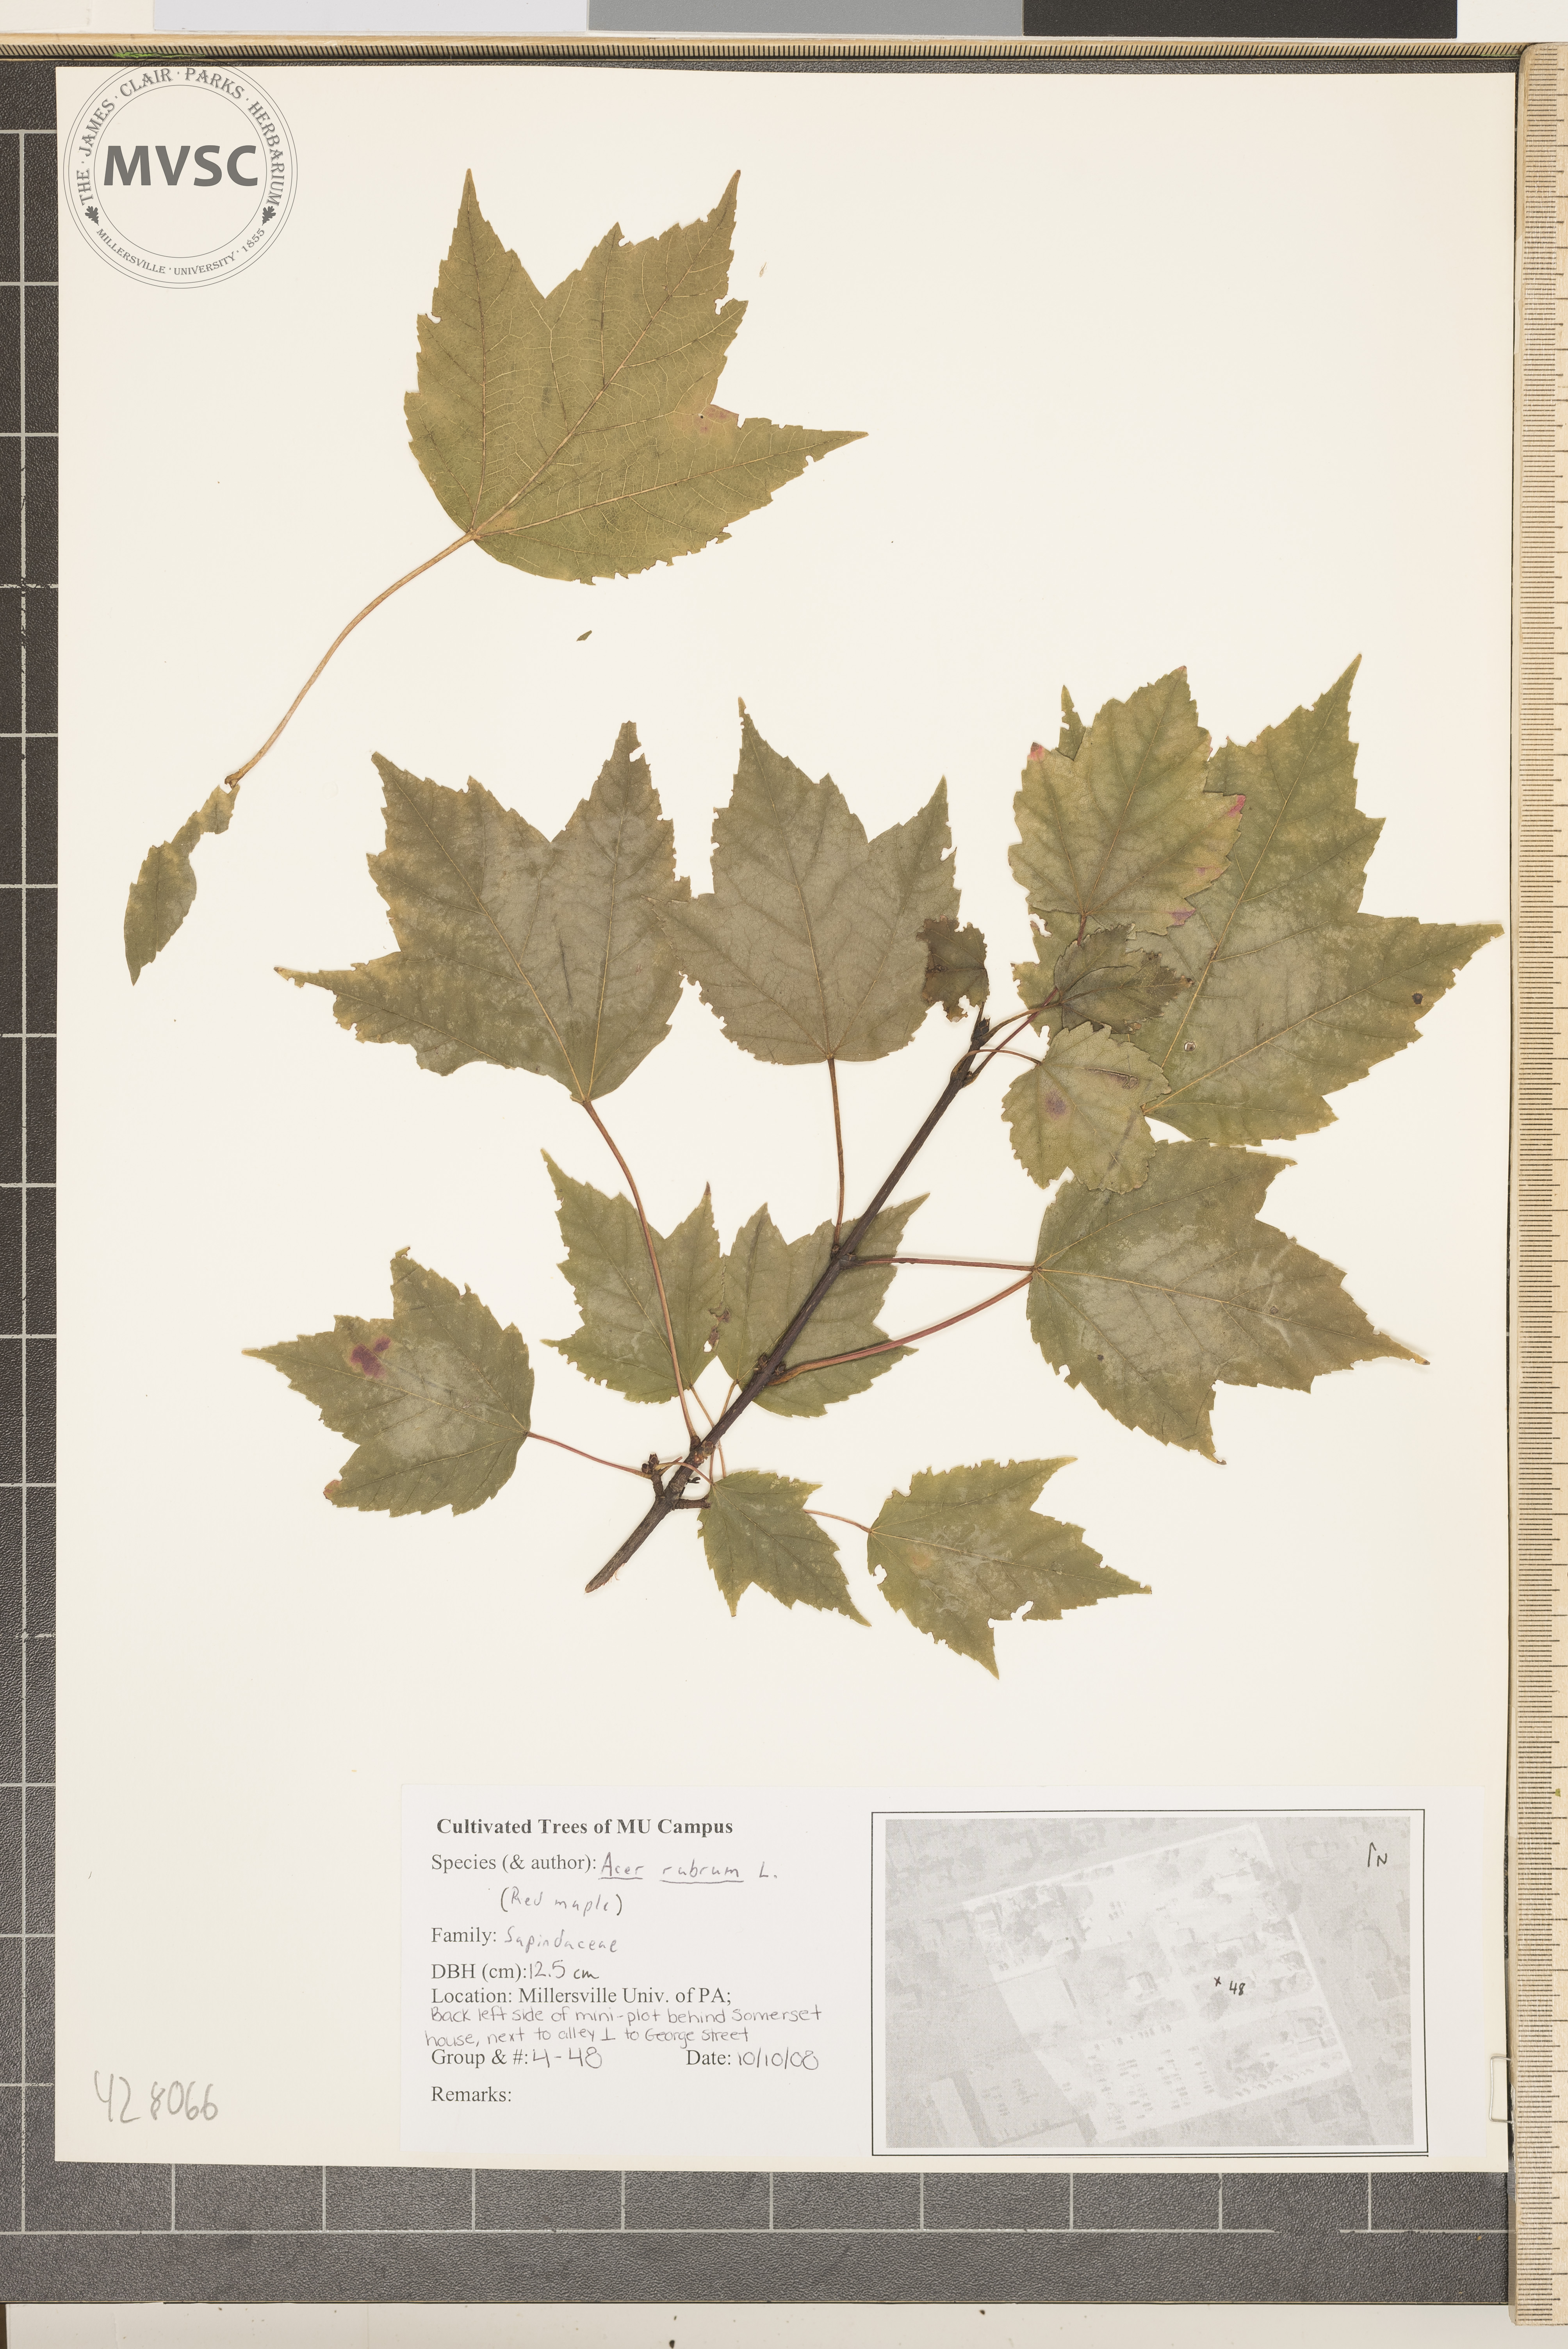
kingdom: Plantae
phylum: Tracheophyta
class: Magnoliopsida
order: Sapindales
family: Sapindaceae
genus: Acer
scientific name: Acer rubrum
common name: Red Maple
